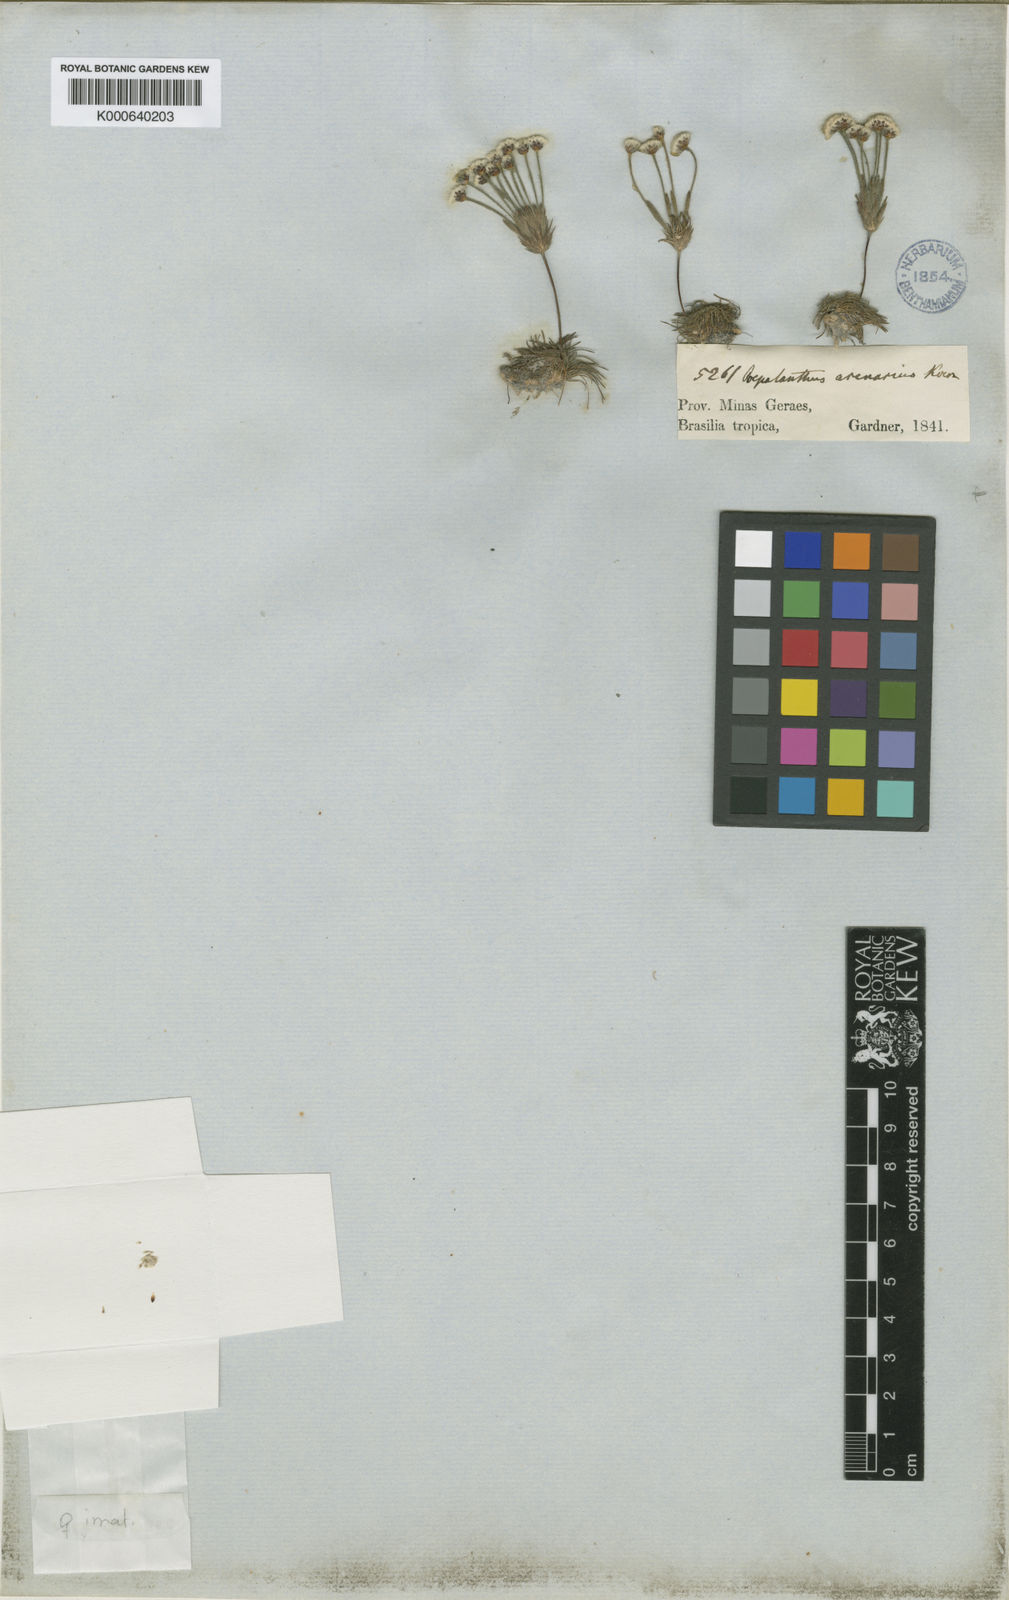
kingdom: Plantae
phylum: Tracheophyta
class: Liliopsida
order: Poales
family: Eriocaulaceae
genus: Syngonanthus
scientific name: Syngonanthus arenarius
